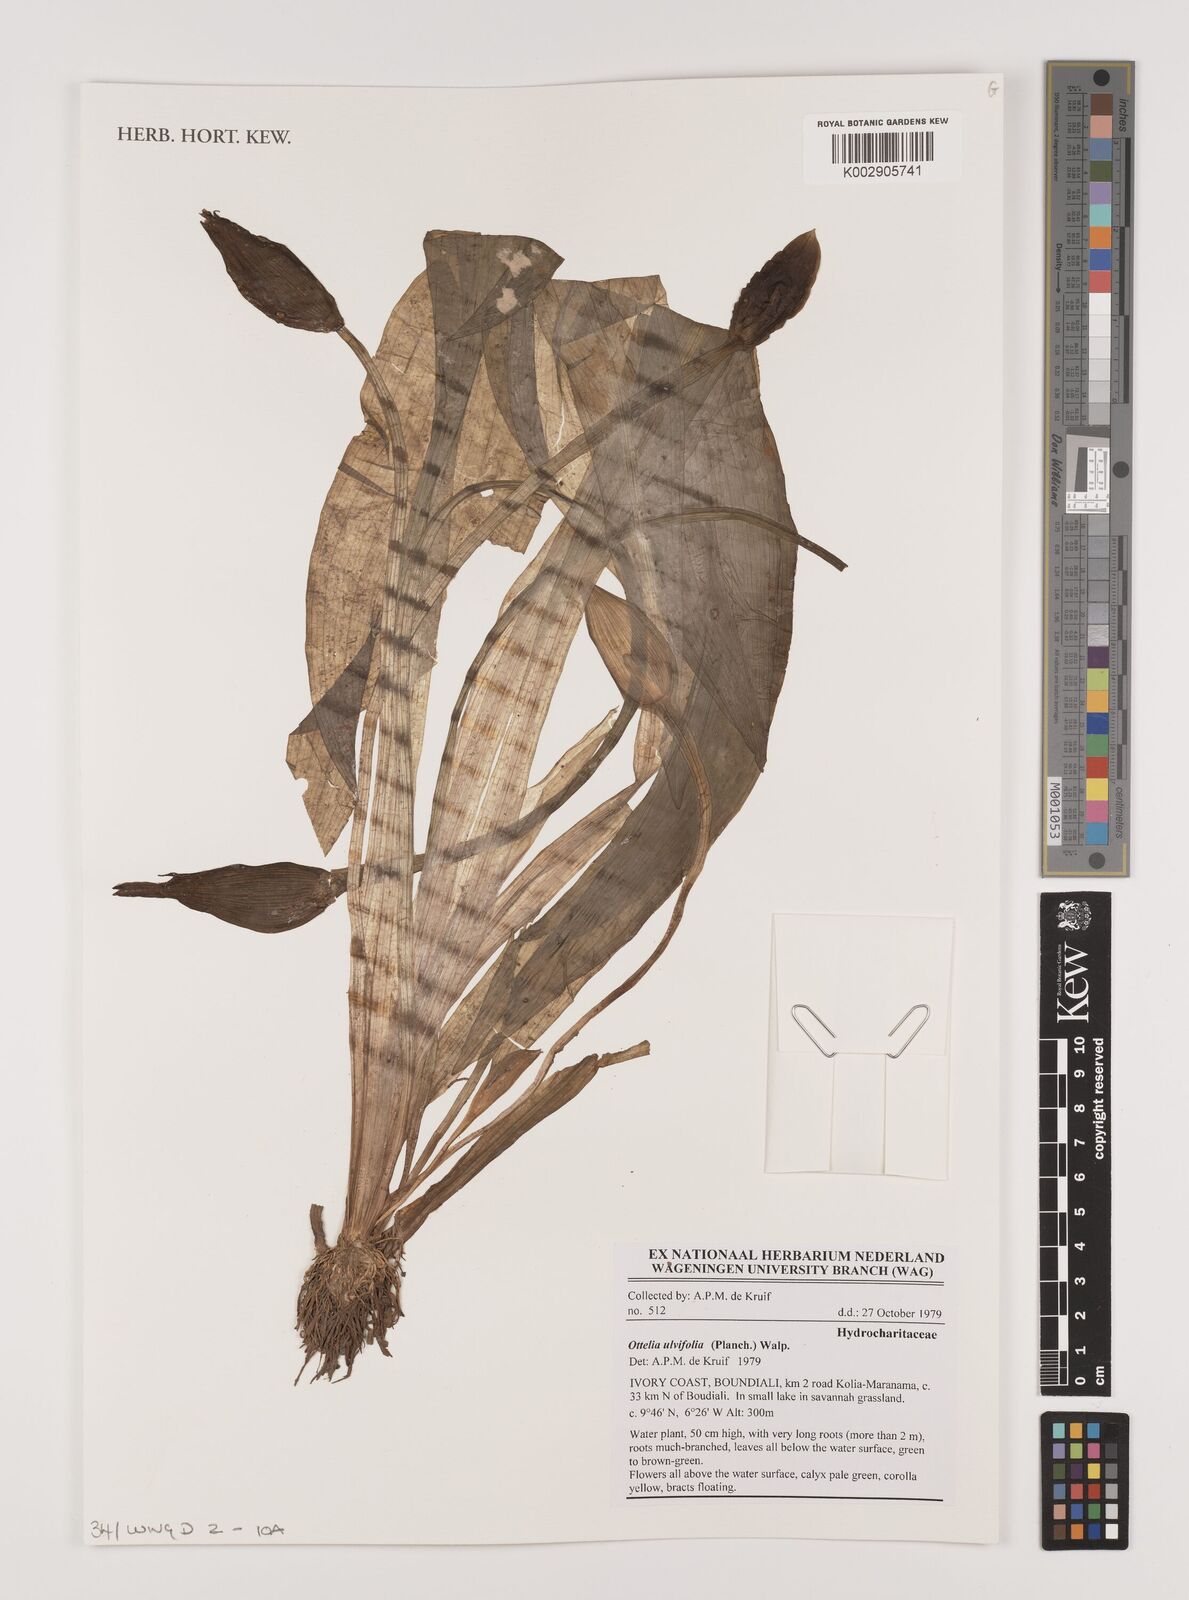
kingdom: Plantae
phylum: Tracheophyta
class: Liliopsida
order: Alismatales
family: Hydrocharitaceae
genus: Ottelia
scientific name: Ottelia ulvifolia
